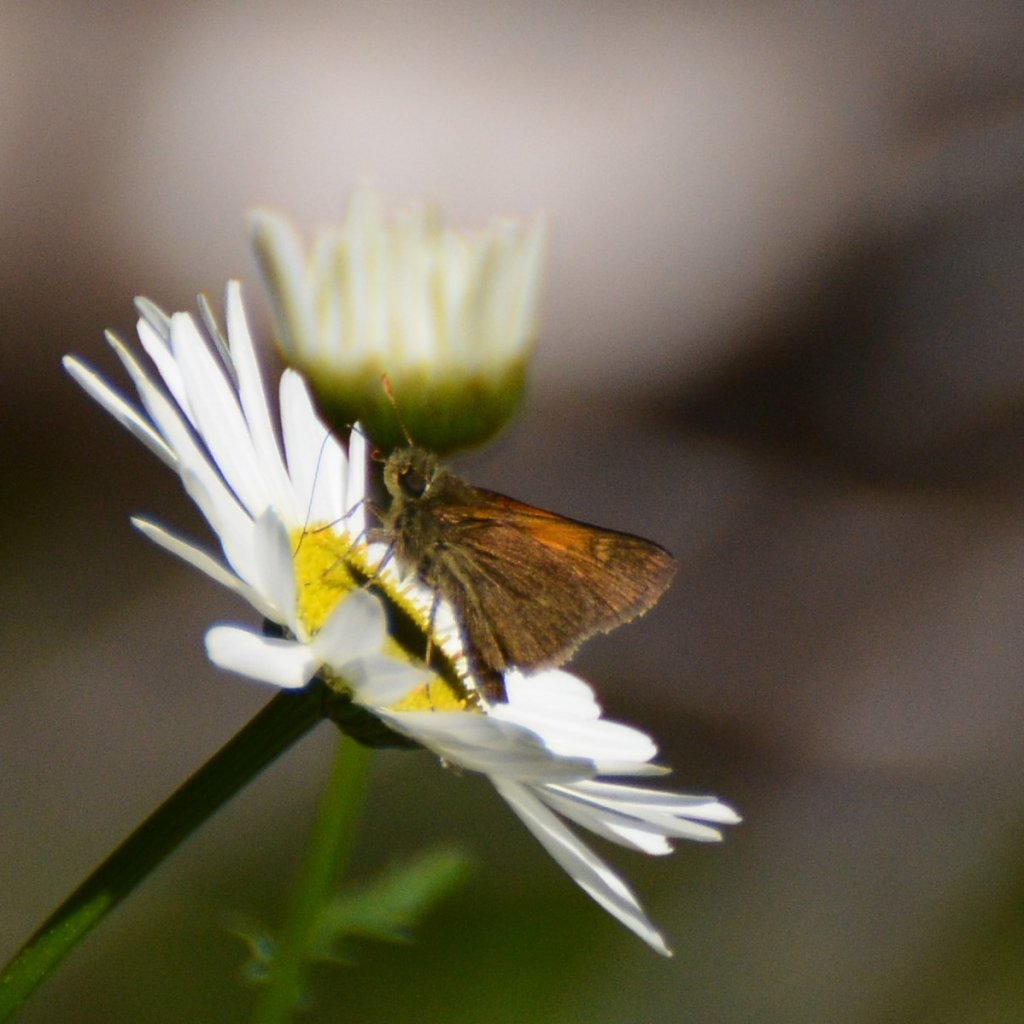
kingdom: Animalia
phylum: Arthropoda
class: Insecta
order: Lepidoptera
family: Hesperiidae
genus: Polites
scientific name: Polites themistocles
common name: Tawny-edged Skipper
